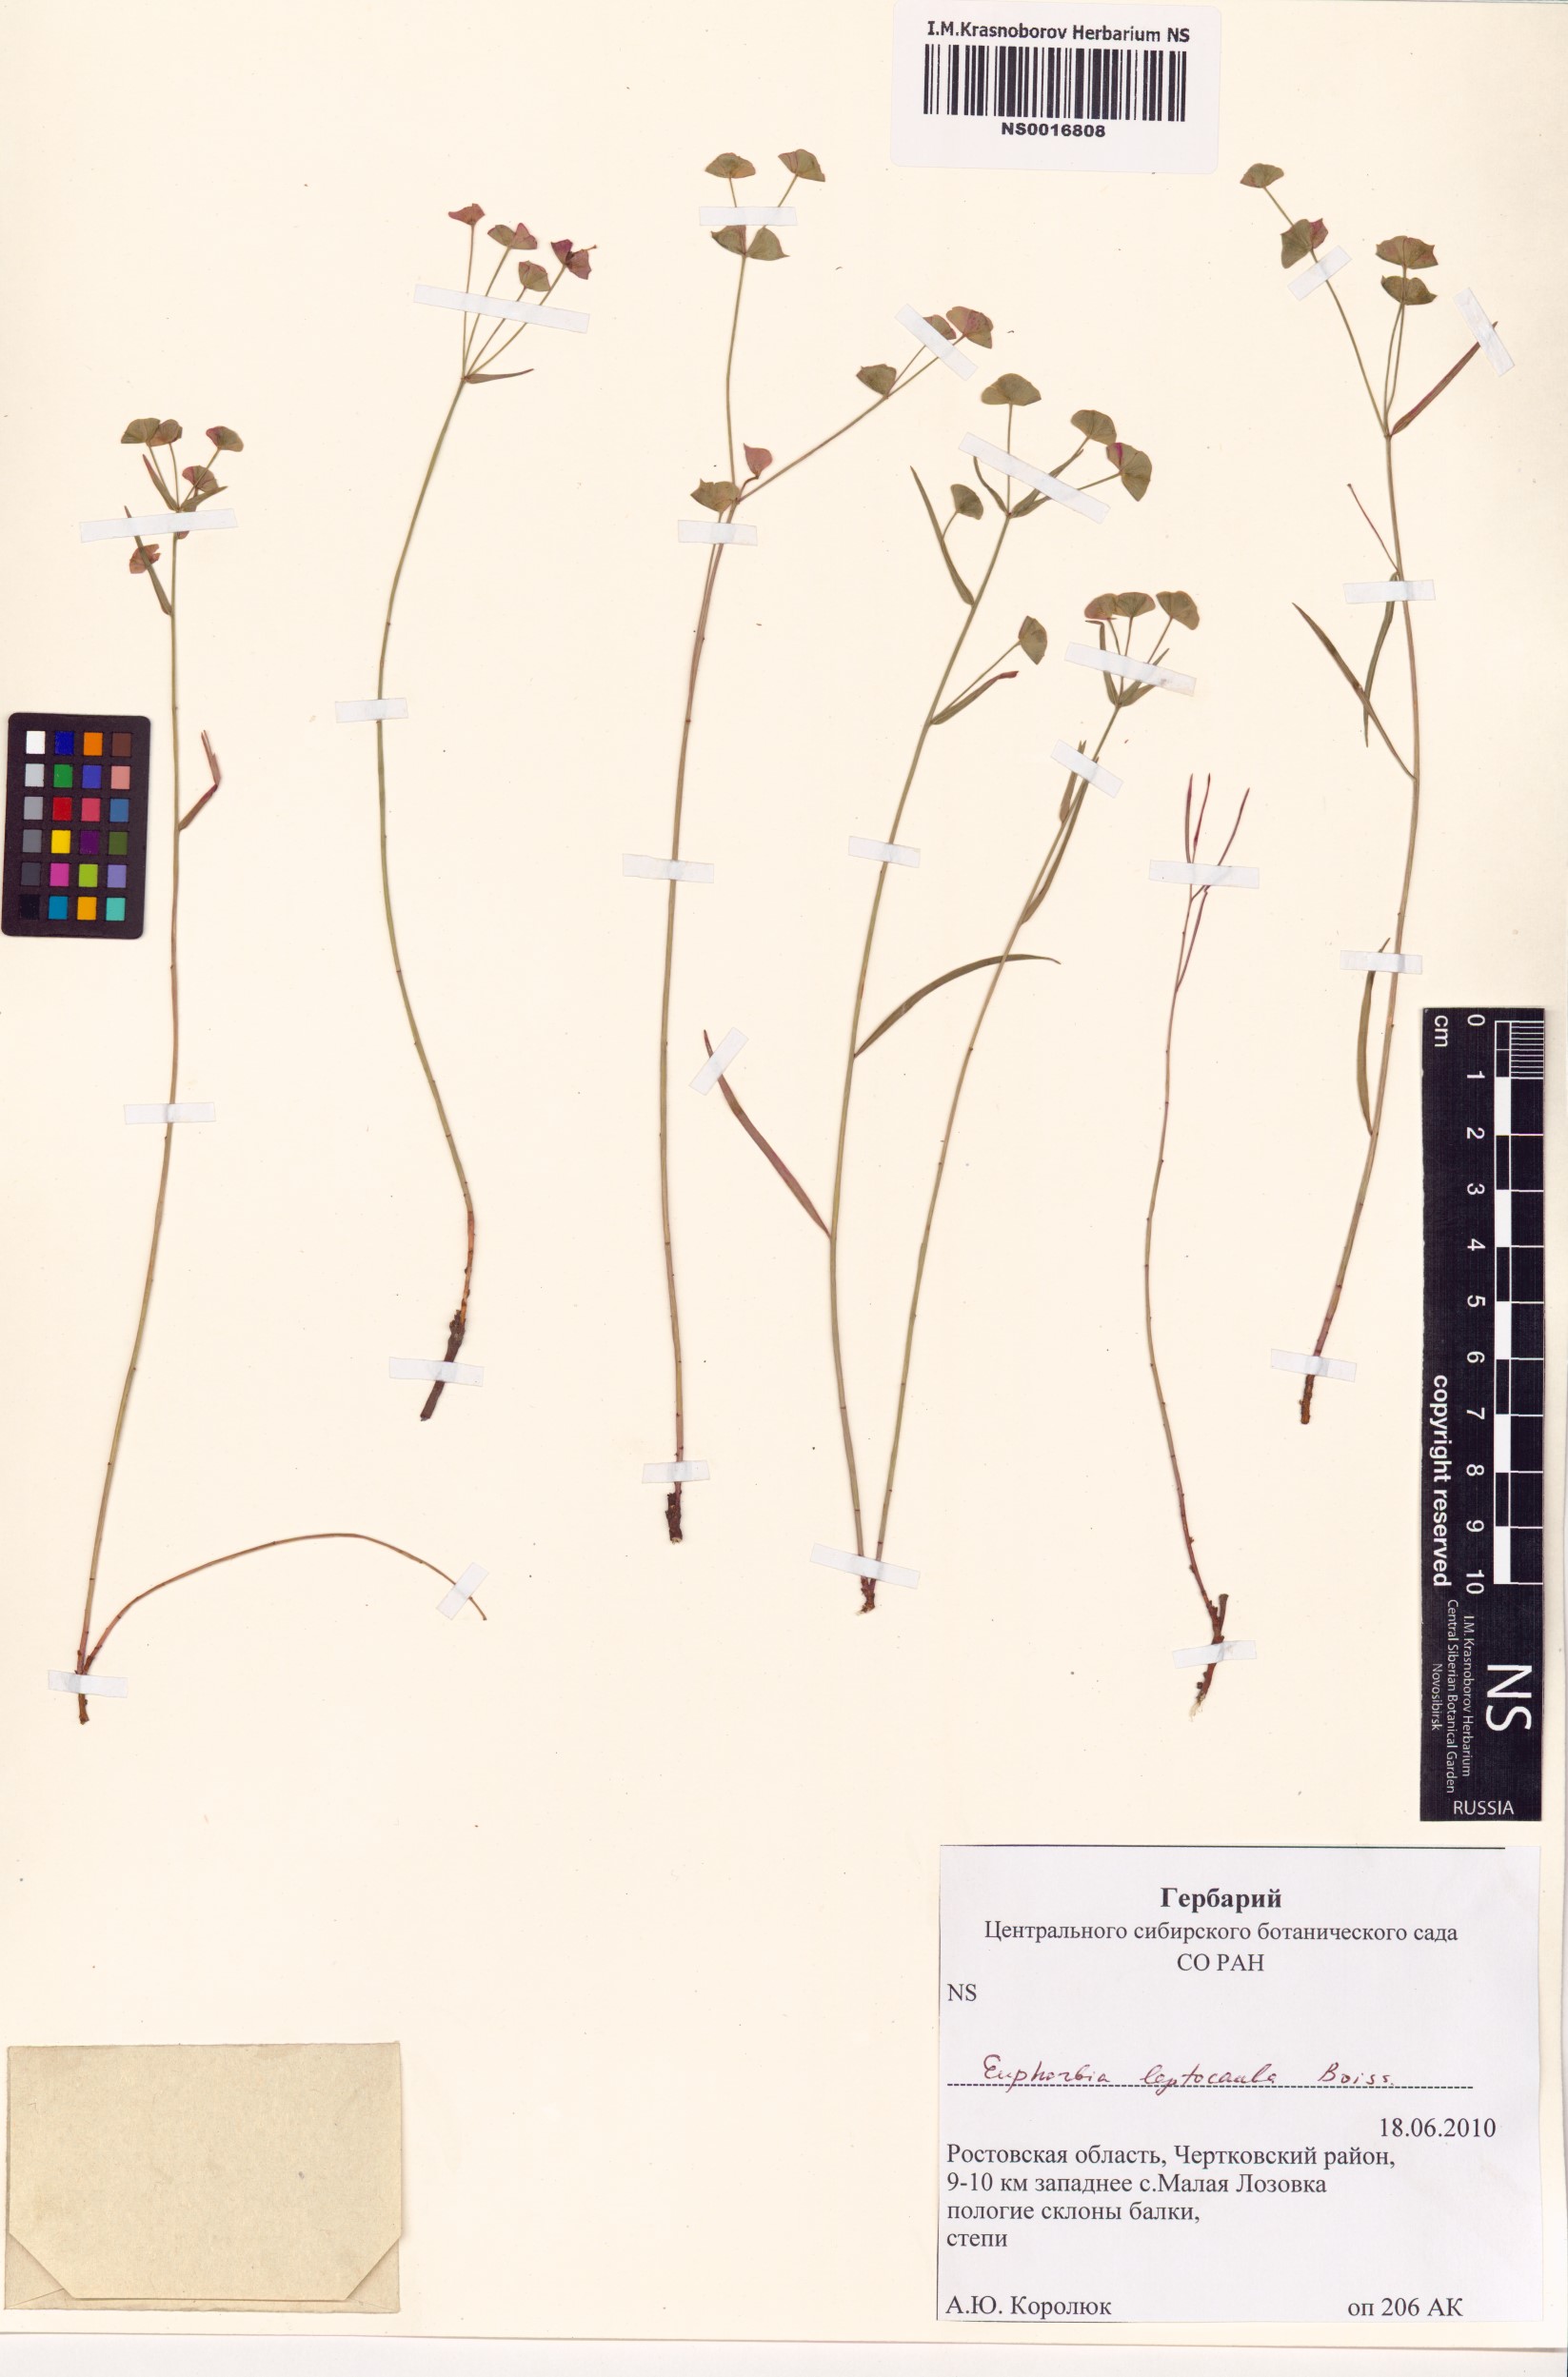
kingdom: Plantae
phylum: Tracheophyta
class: Magnoliopsida
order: Malpighiales
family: Euphorbiaceae
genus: Euphorbia
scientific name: Euphorbia leptocaula
